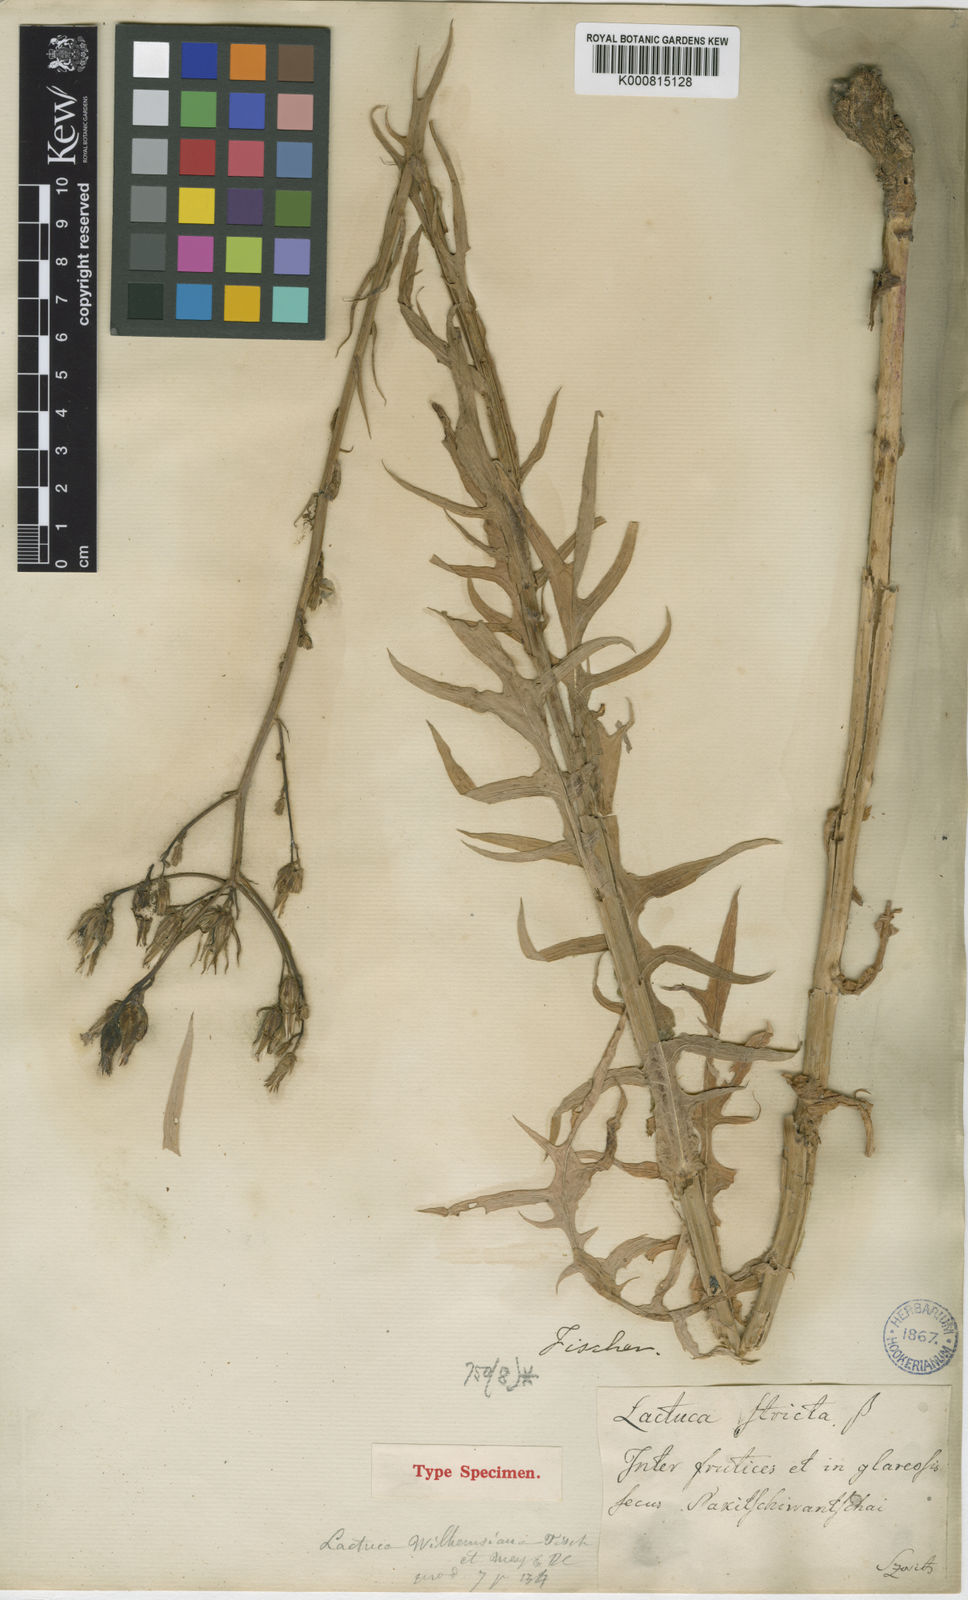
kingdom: Plantae
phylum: Tracheophyta
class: Magnoliopsida
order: Asterales
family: Asteraceae
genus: Lactuca
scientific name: Lactuca quercina
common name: Wild lettuce
